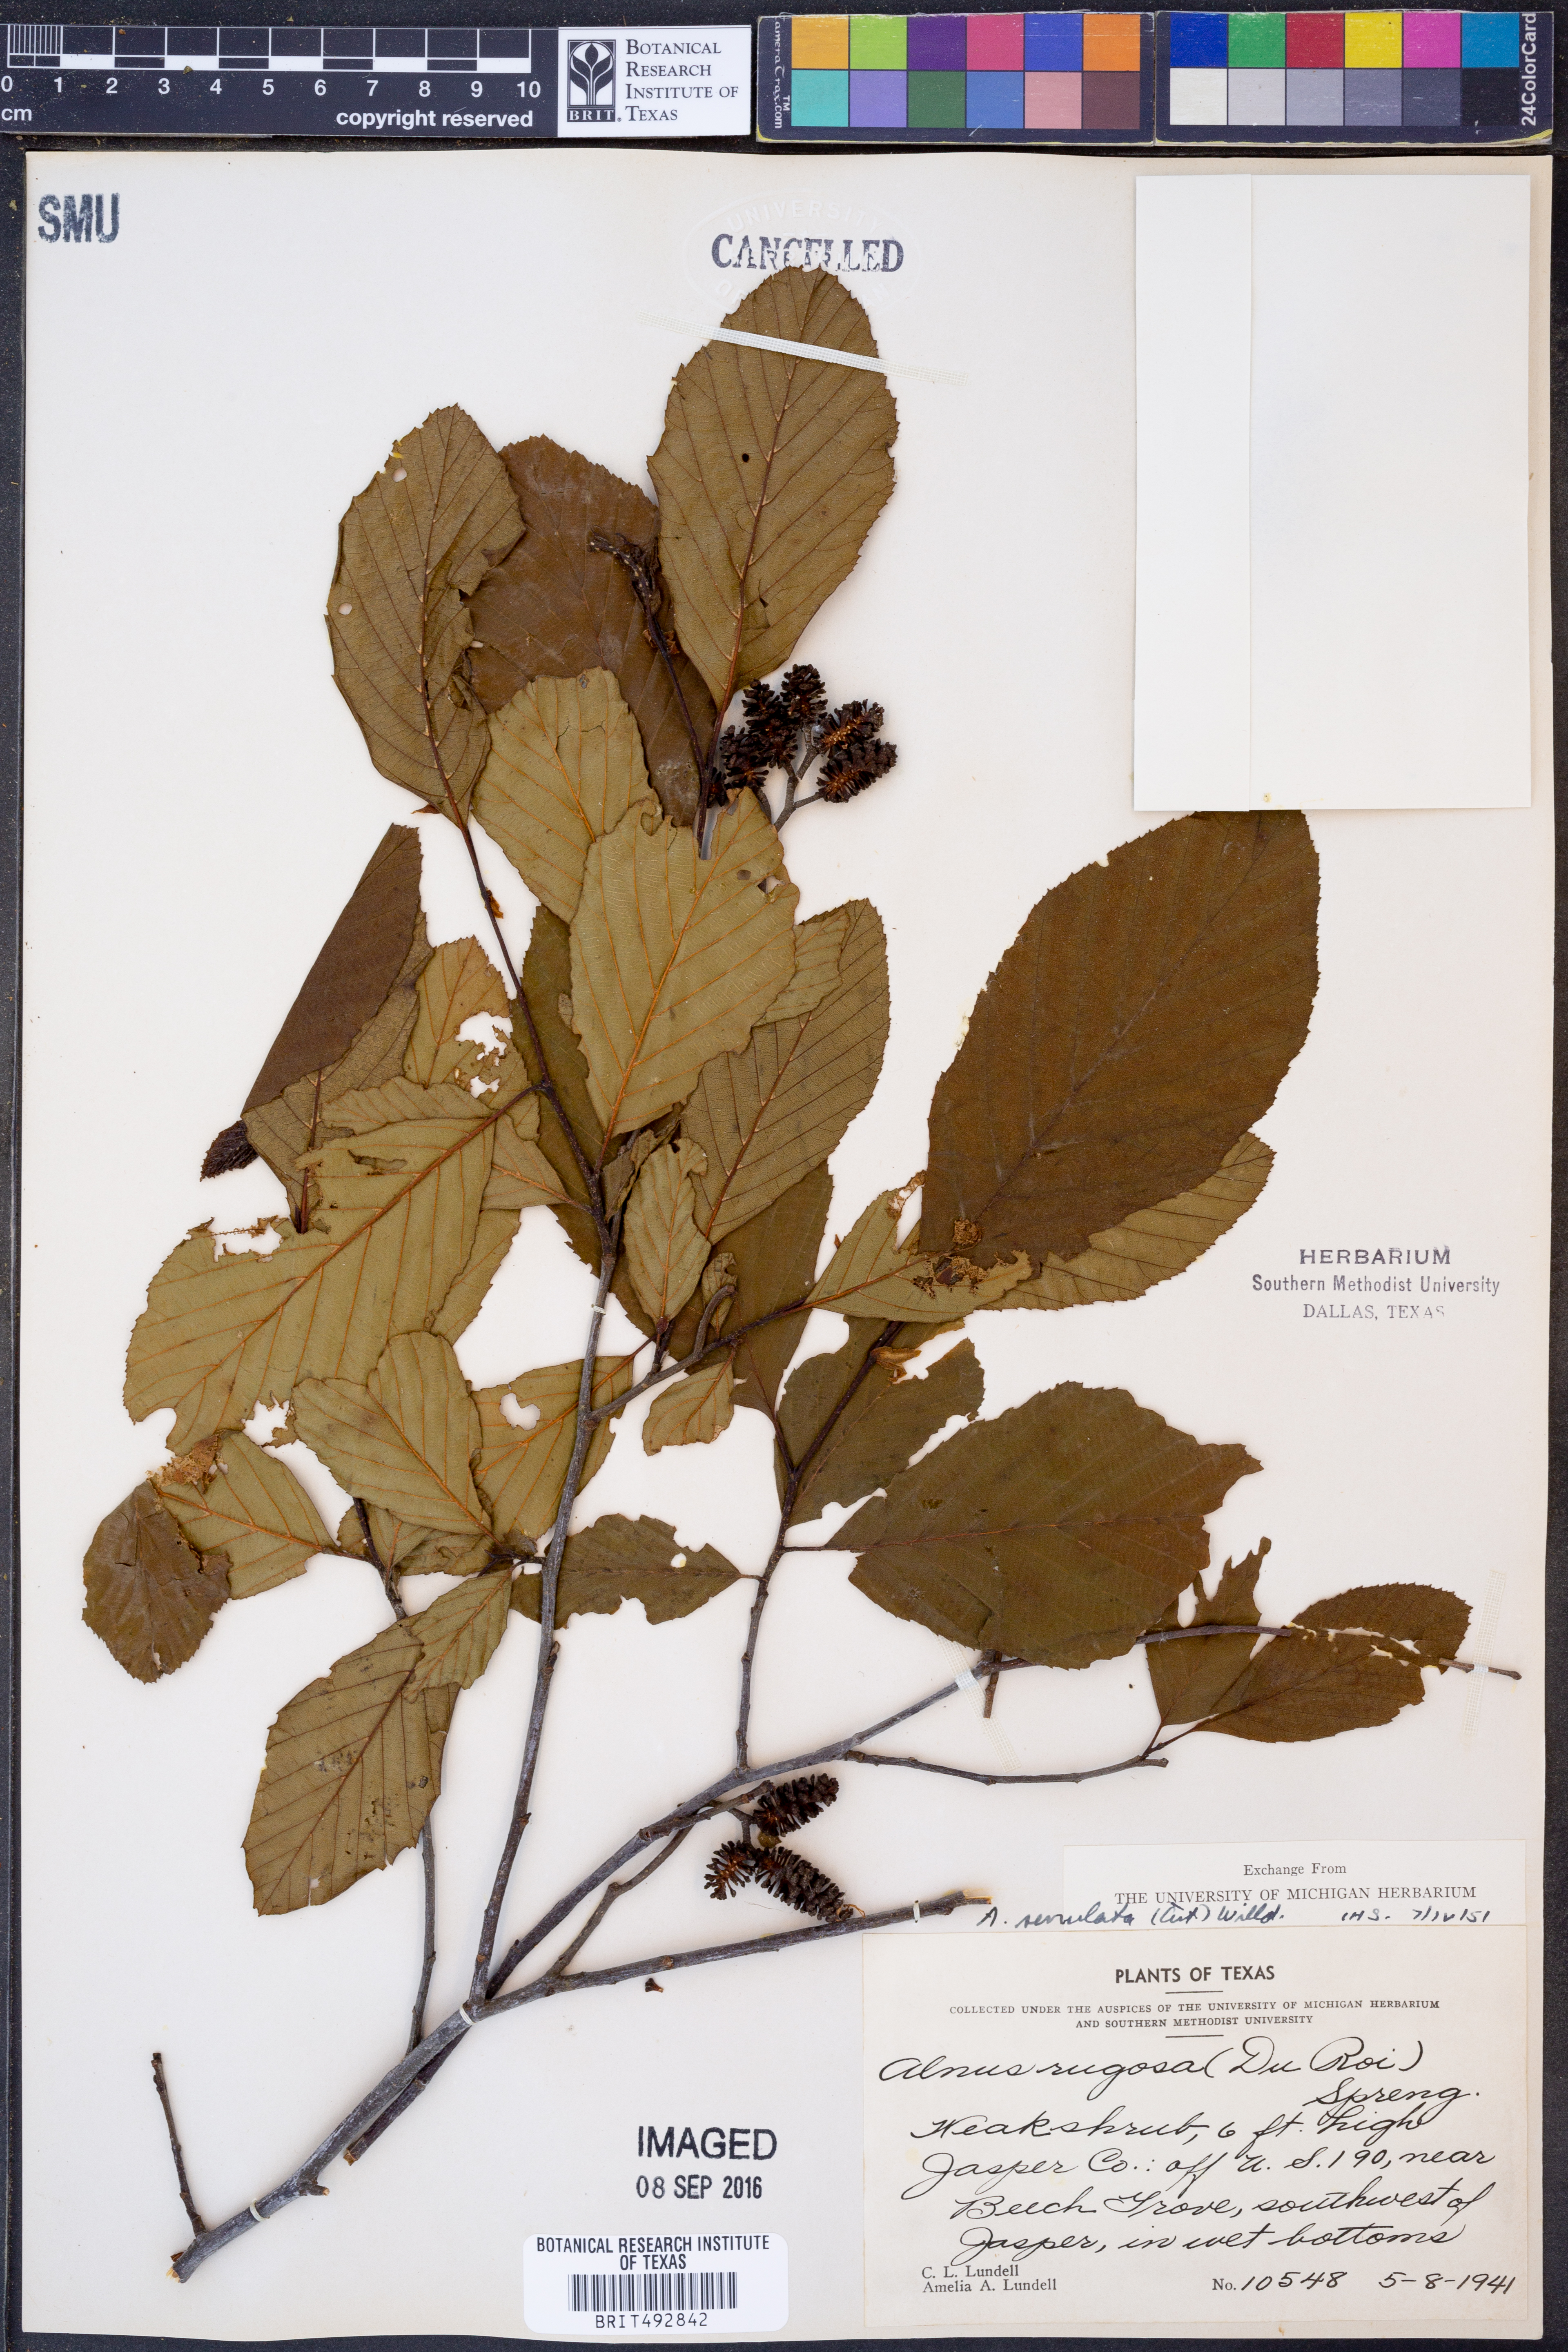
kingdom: Plantae
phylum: Tracheophyta
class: Magnoliopsida
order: Fagales
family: Betulaceae
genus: Alnus
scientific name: Alnus serrulata
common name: Hazel alder
